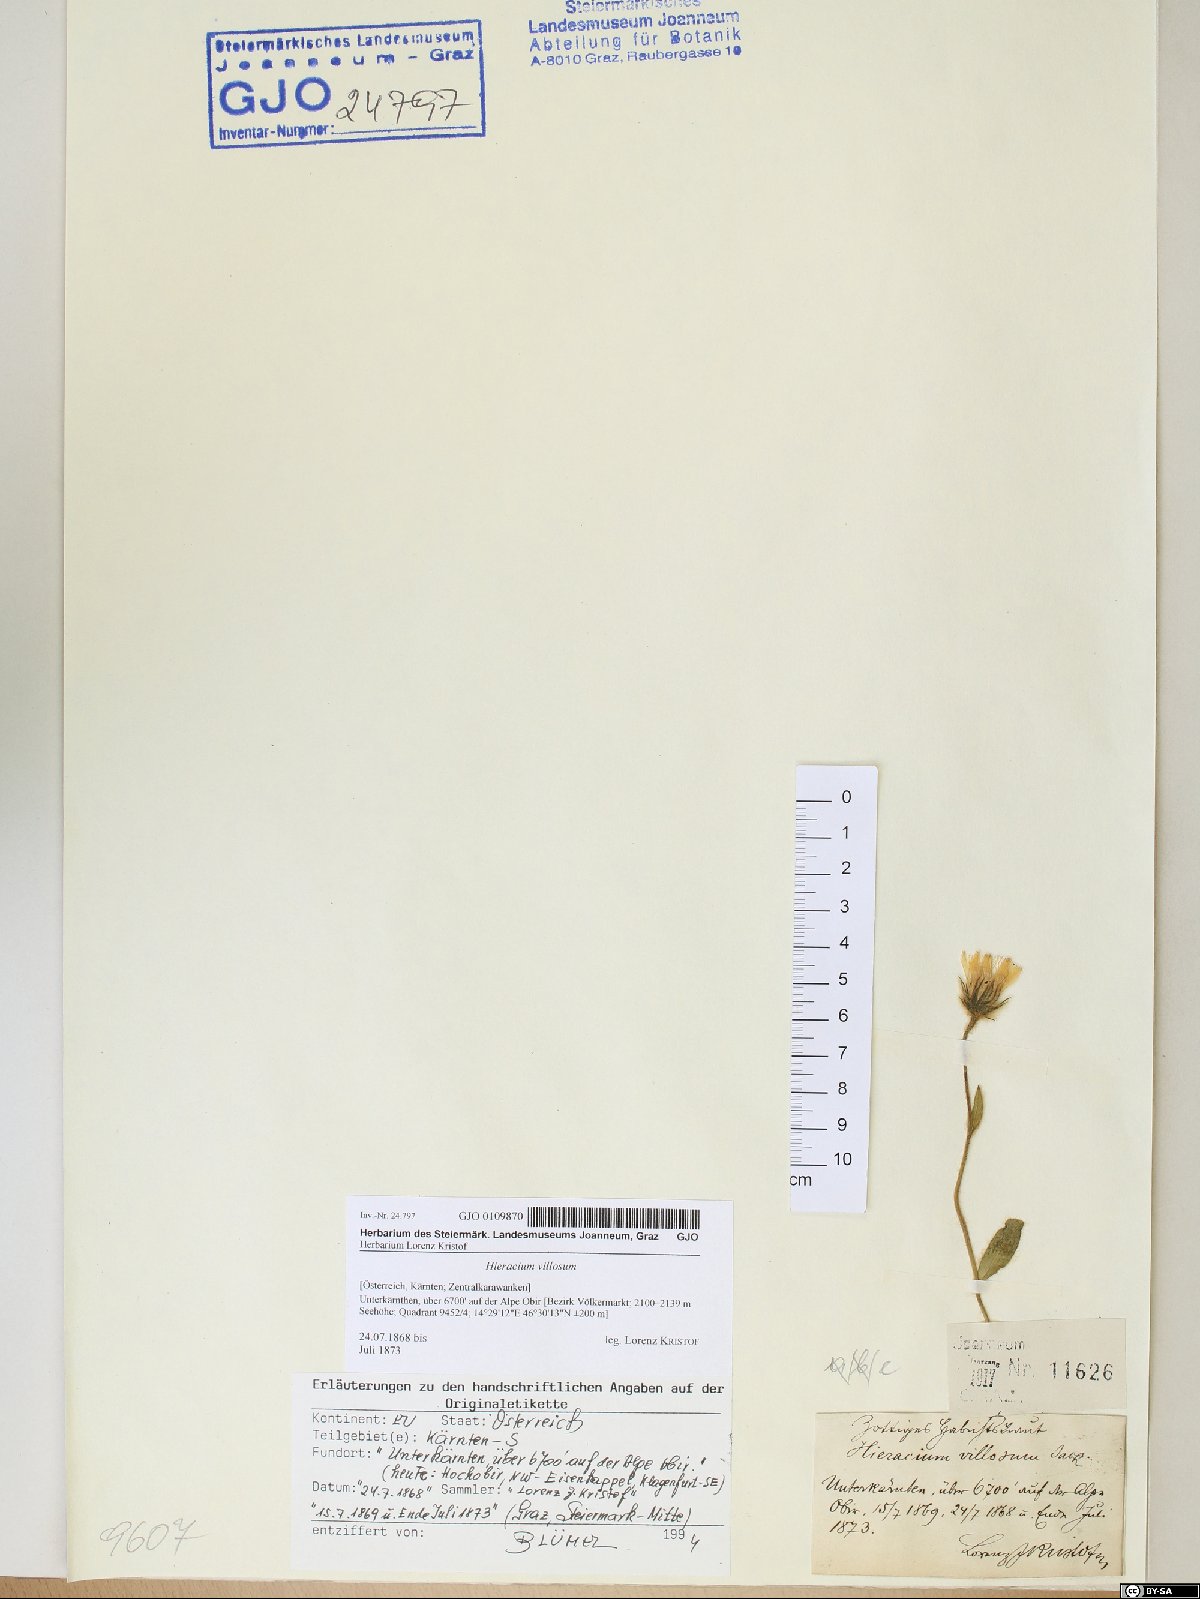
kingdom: Plantae
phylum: Tracheophyta
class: Magnoliopsida
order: Asterales
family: Asteraceae
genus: Hieracium
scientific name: Hieracium villosum
